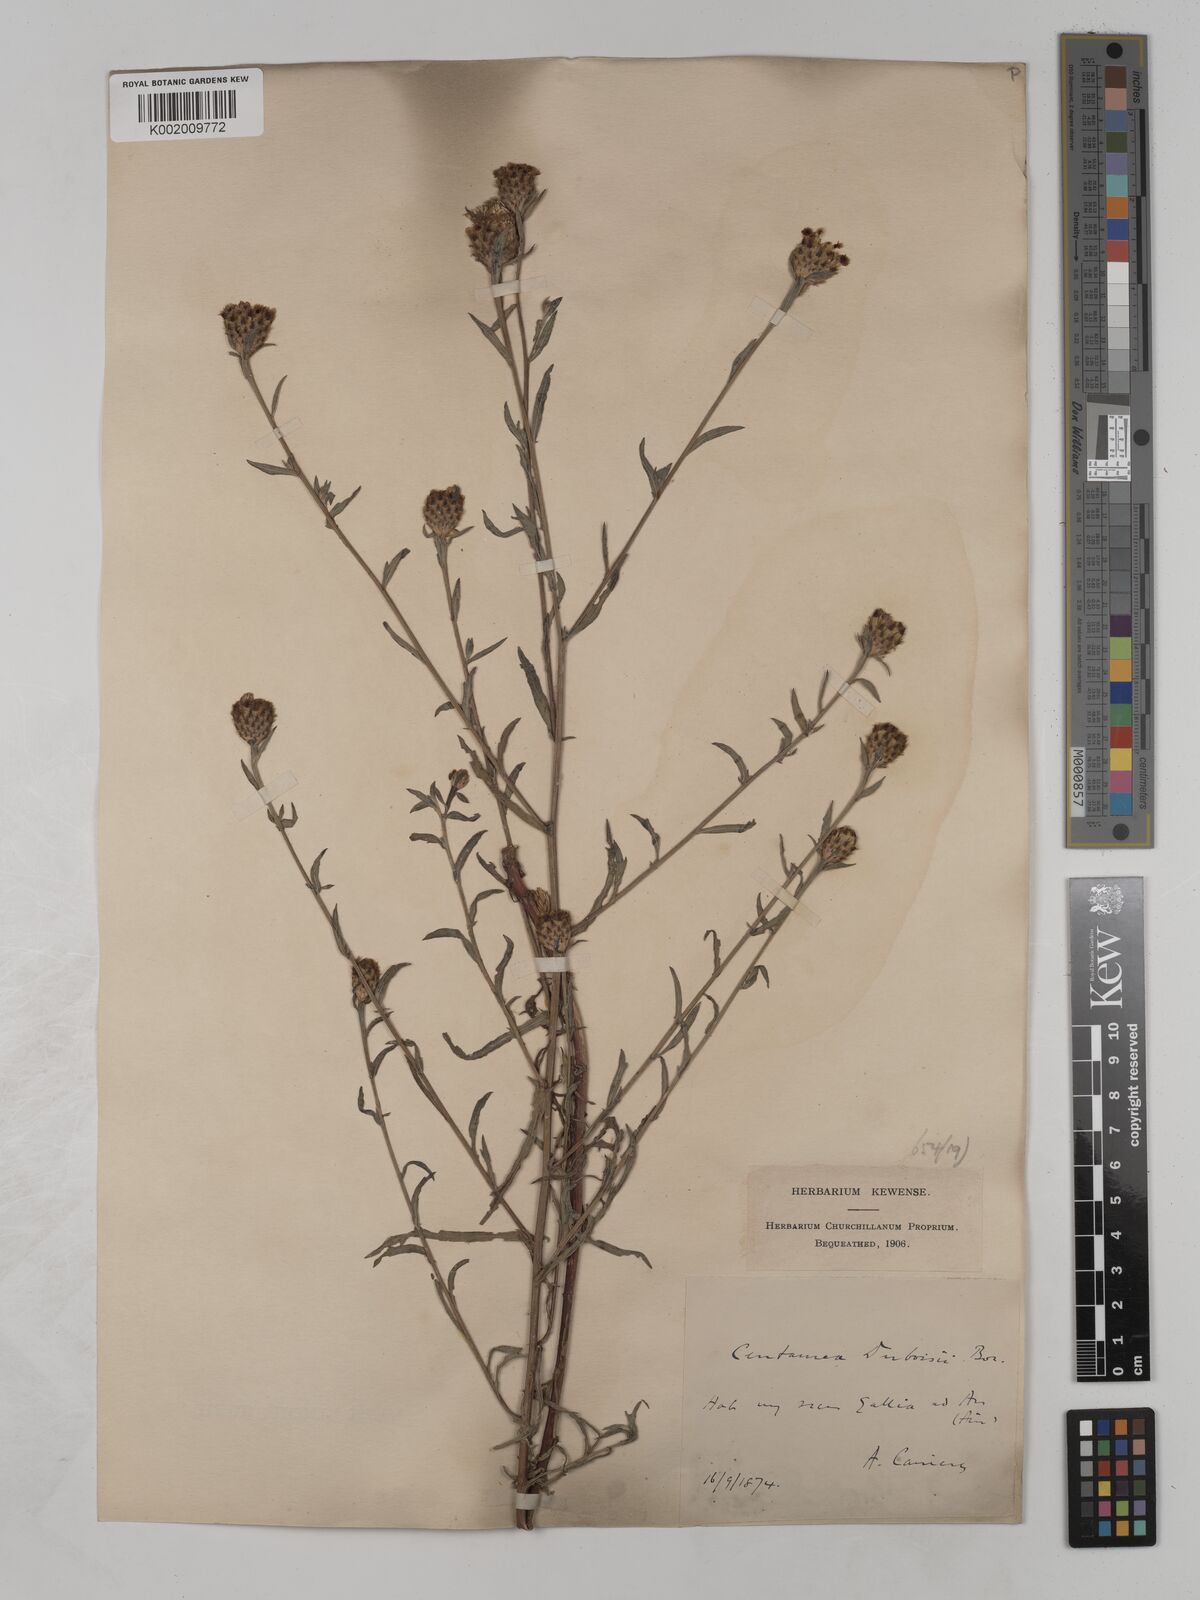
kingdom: Plantae
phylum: Tracheophyta
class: Magnoliopsida
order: Asterales
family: Asteraceae
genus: Centaurea
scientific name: Centaurea timbalii
